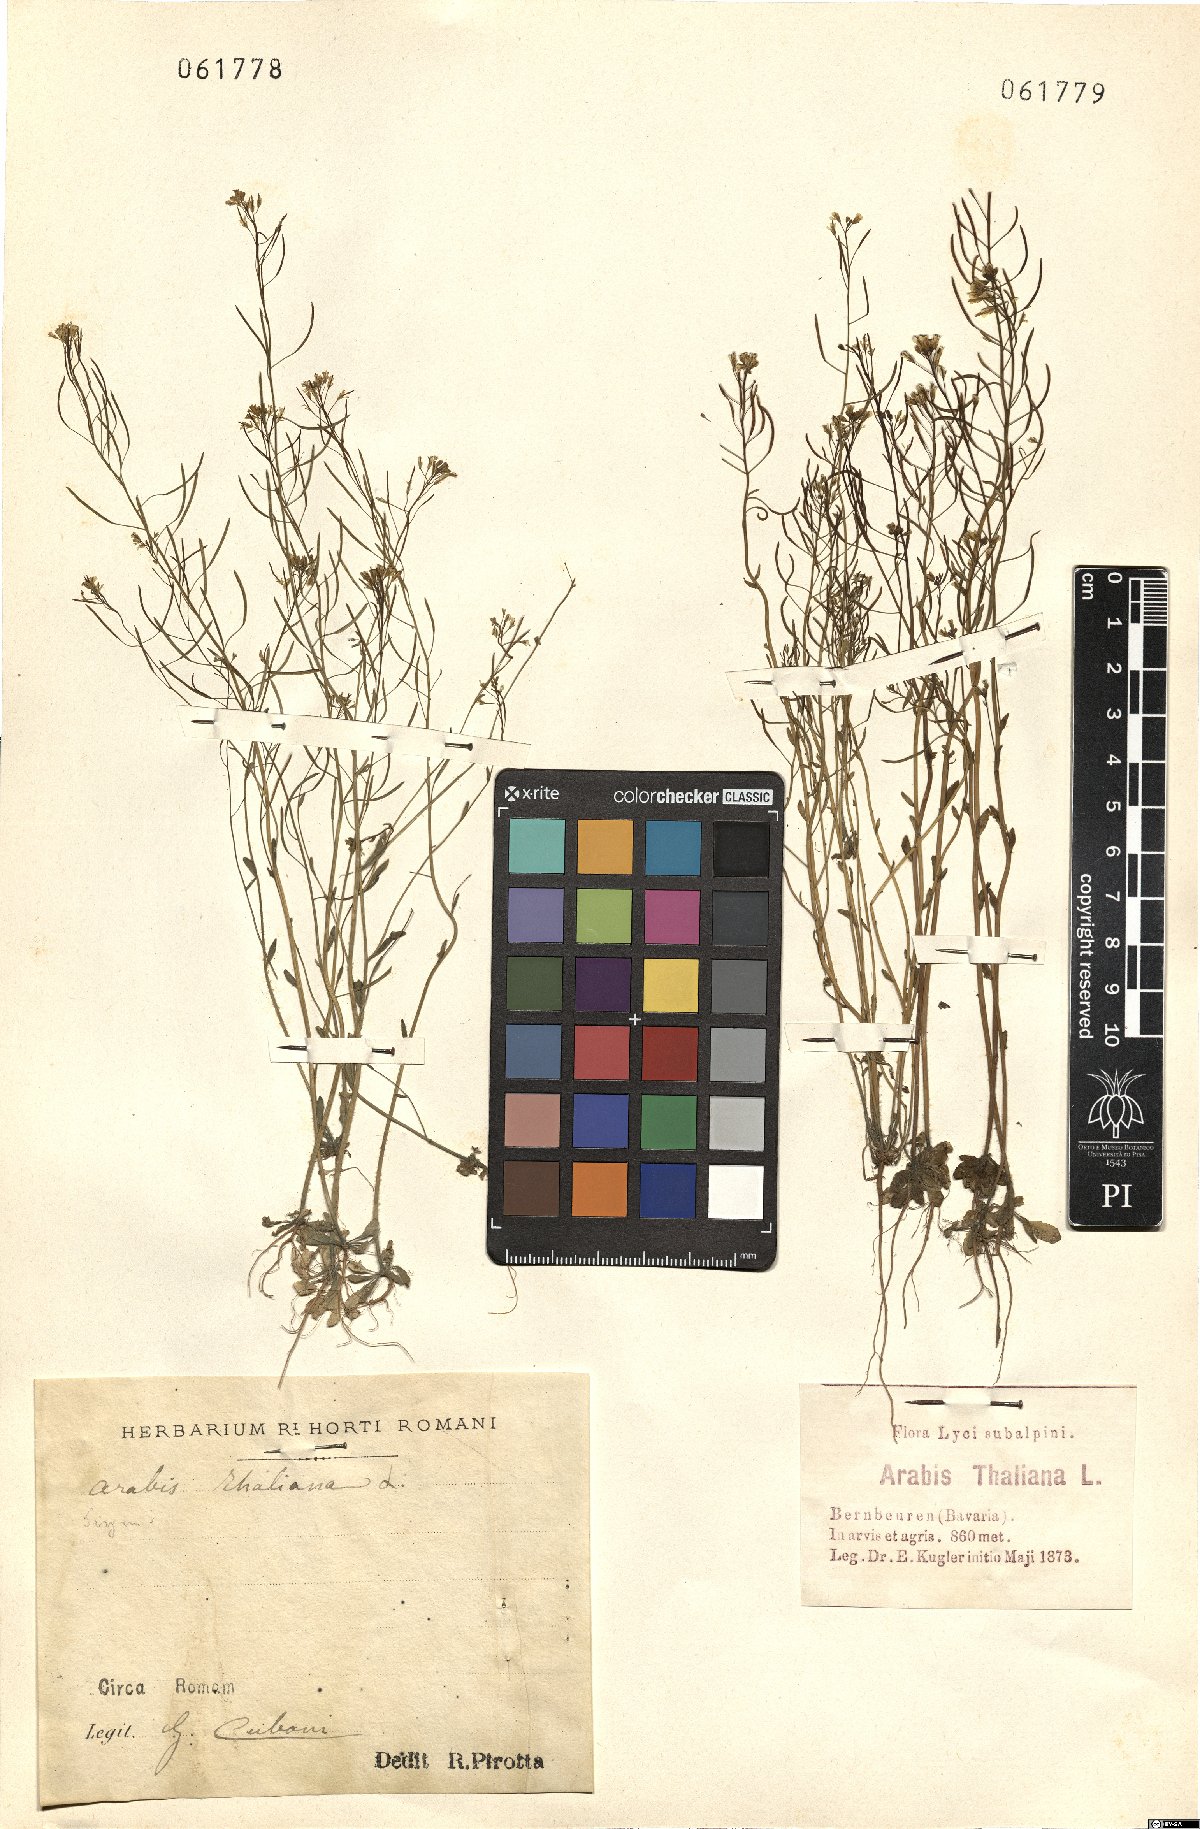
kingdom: Plantae
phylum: Tracheophyta
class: Magnoliopsida
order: Brassicales
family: Brassicaceae
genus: Arabidopsis
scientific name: Arabidopsis thaliana
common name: Thale cress
